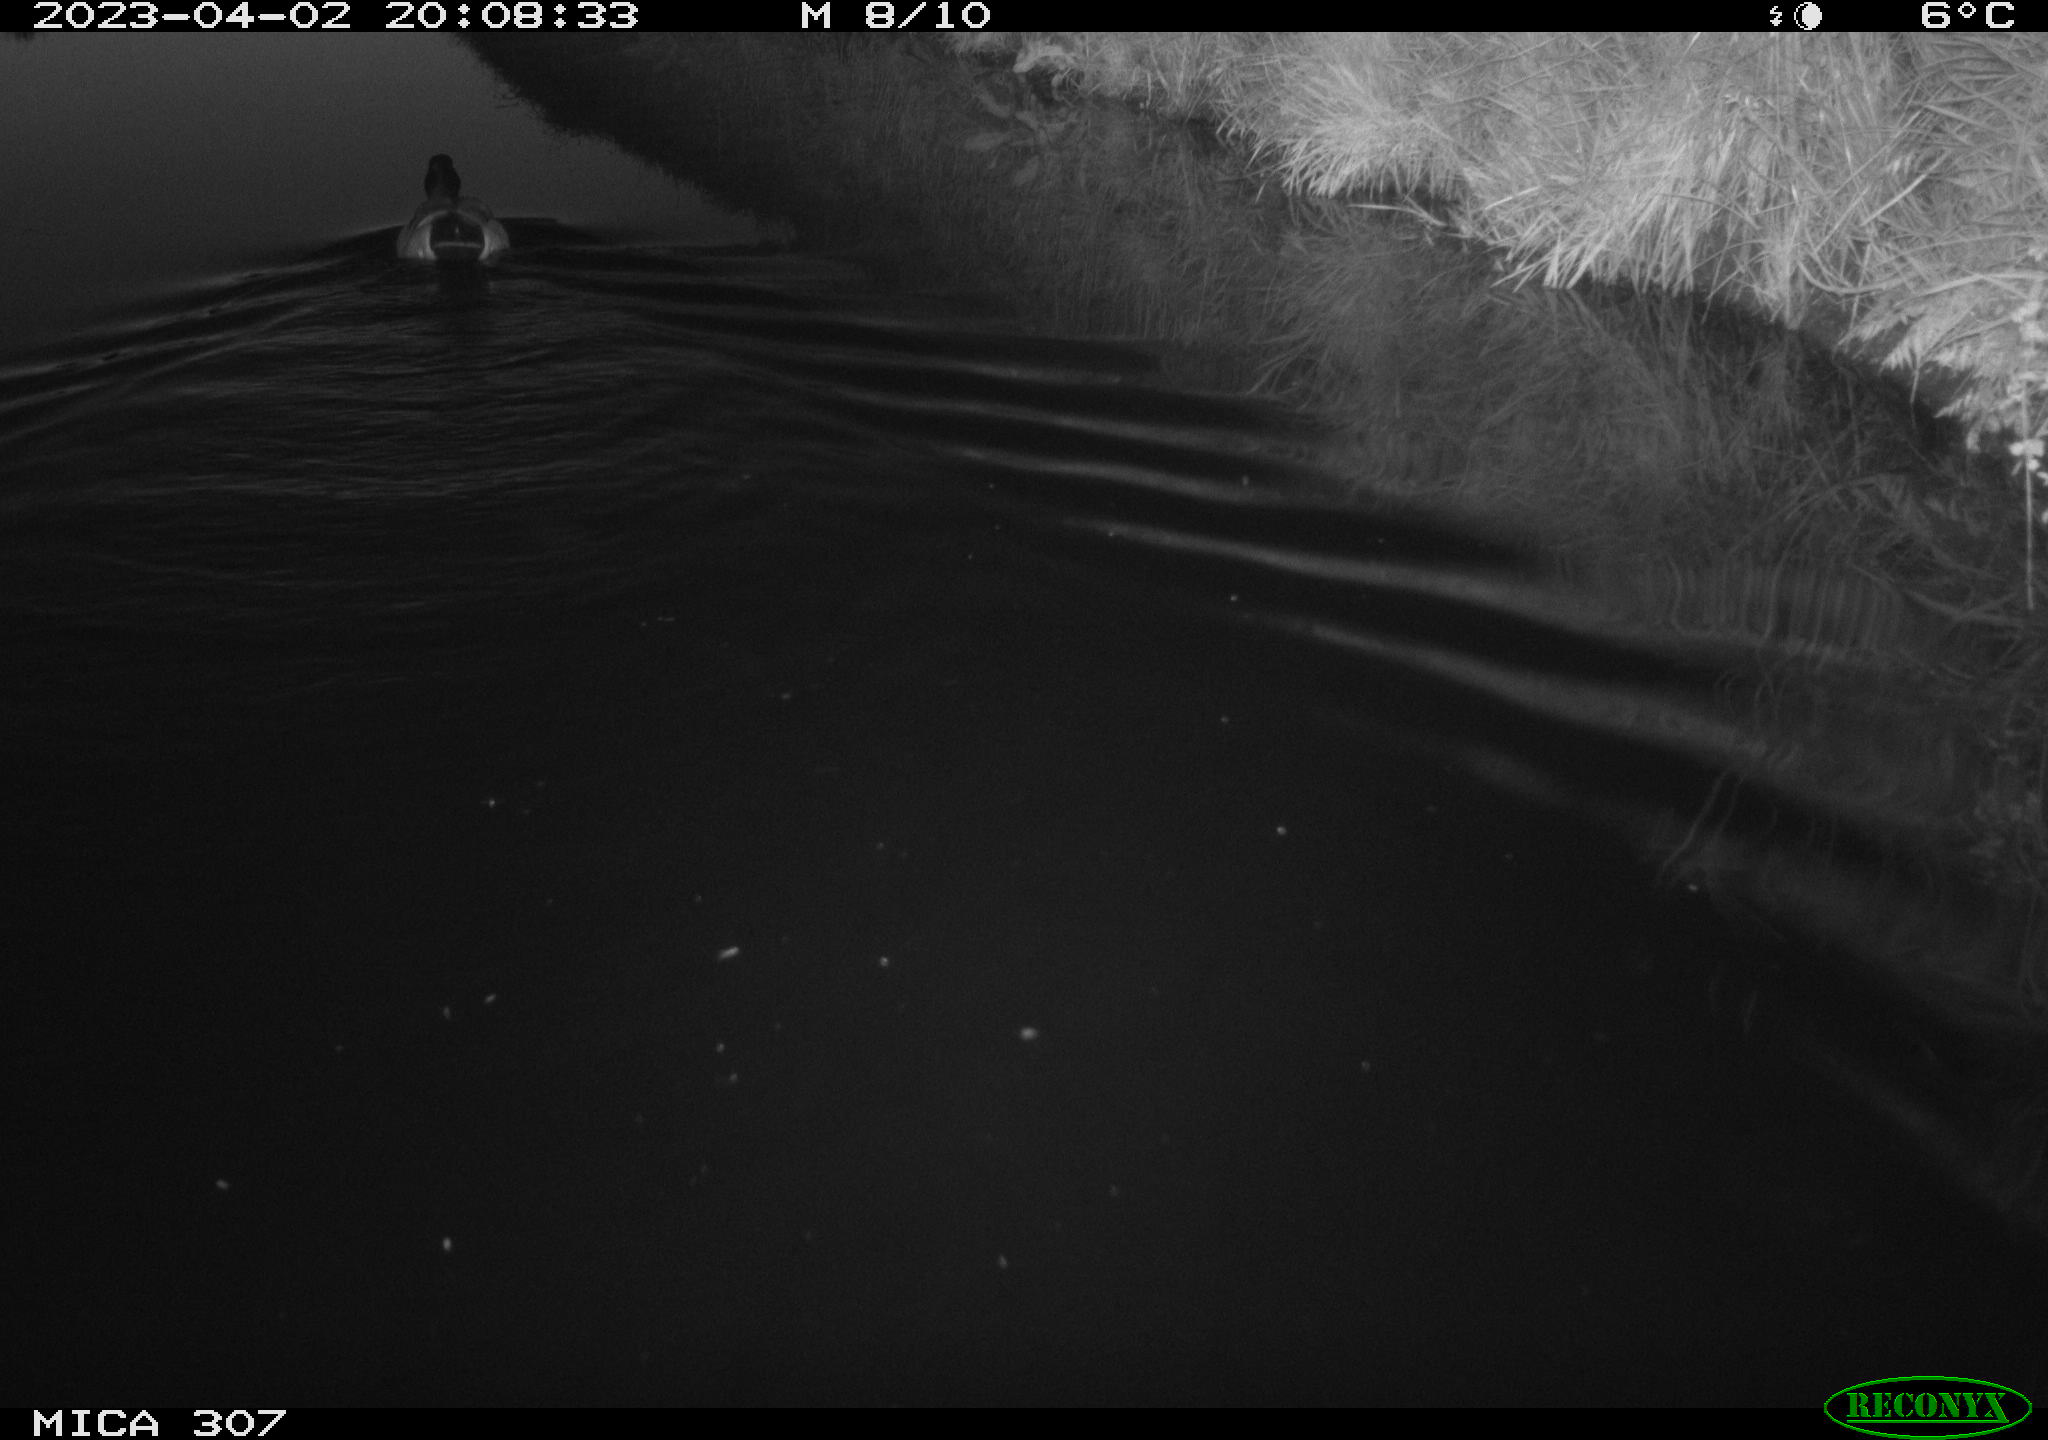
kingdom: Animalia
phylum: Chordata
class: Aves
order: Anseriformes
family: Anatidae
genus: Anas
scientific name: Anas
